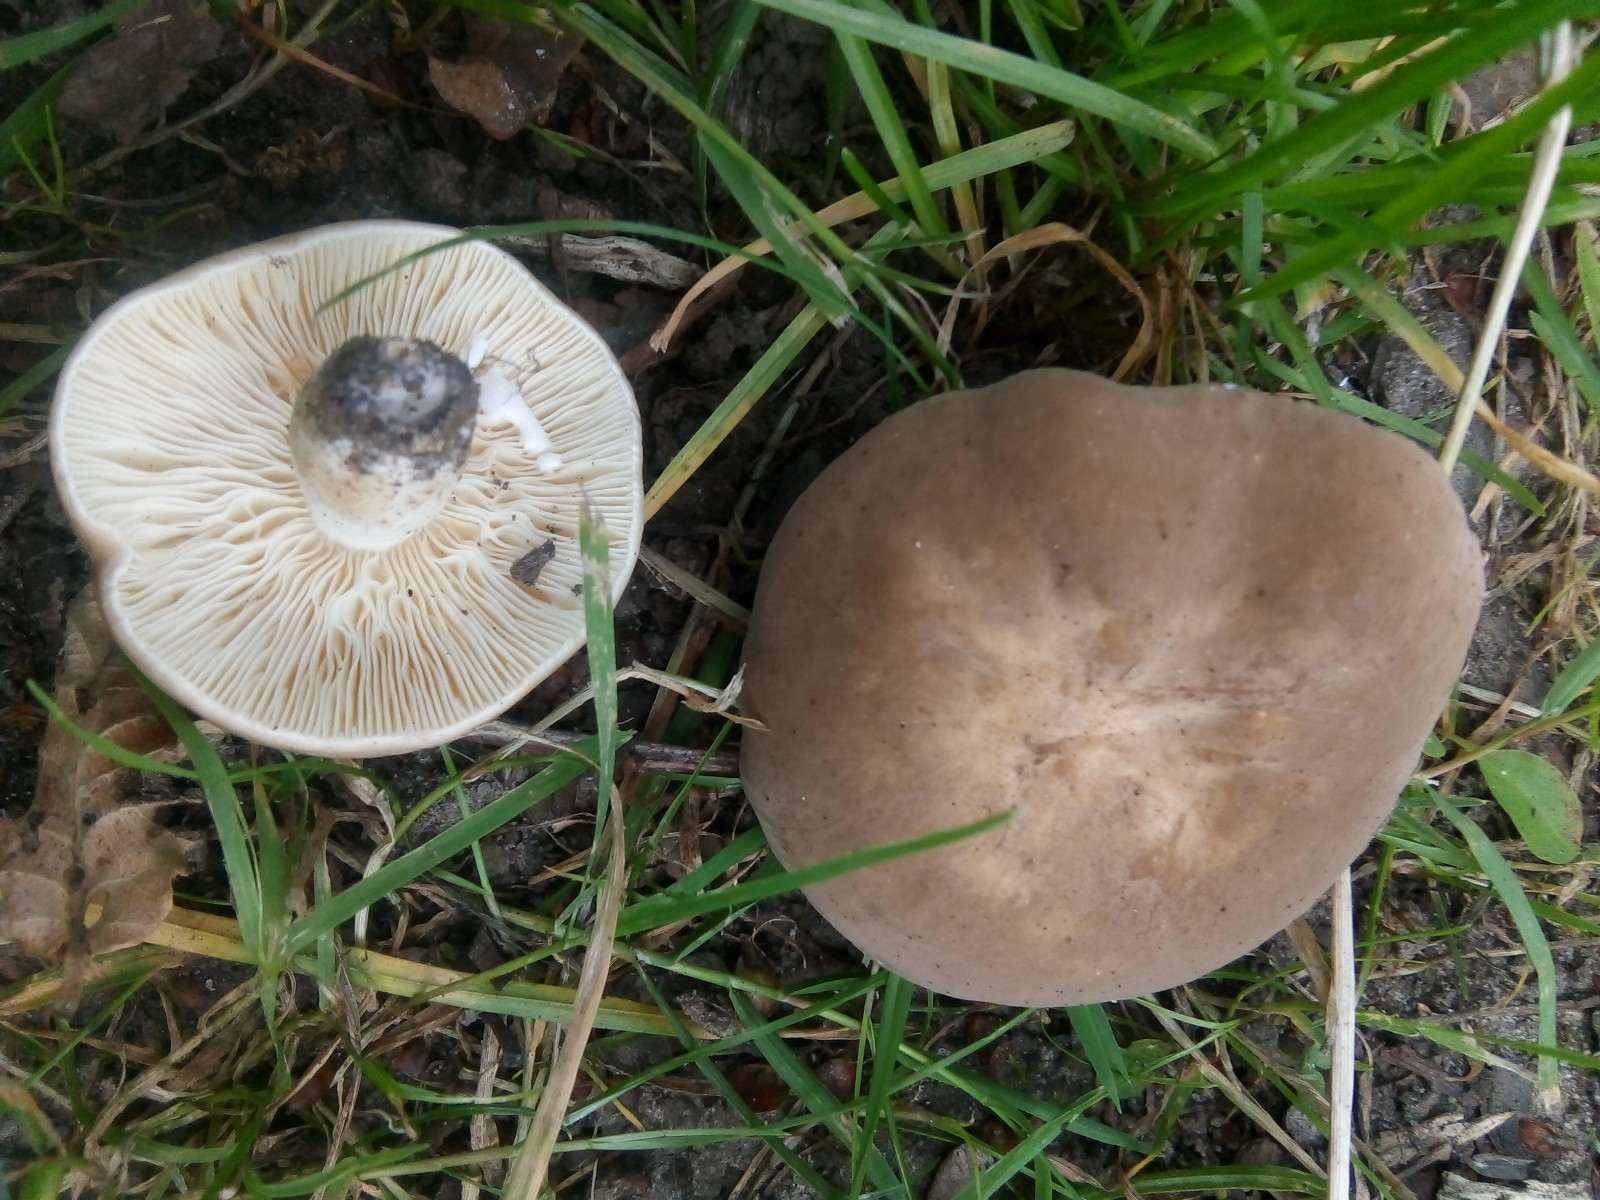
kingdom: Fungi
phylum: Basidiomycota
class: Agaricomycetes
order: Russulales
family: Russulaceae
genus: Lactarius
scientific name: Lactarius azonites
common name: røggrå mælkehat
